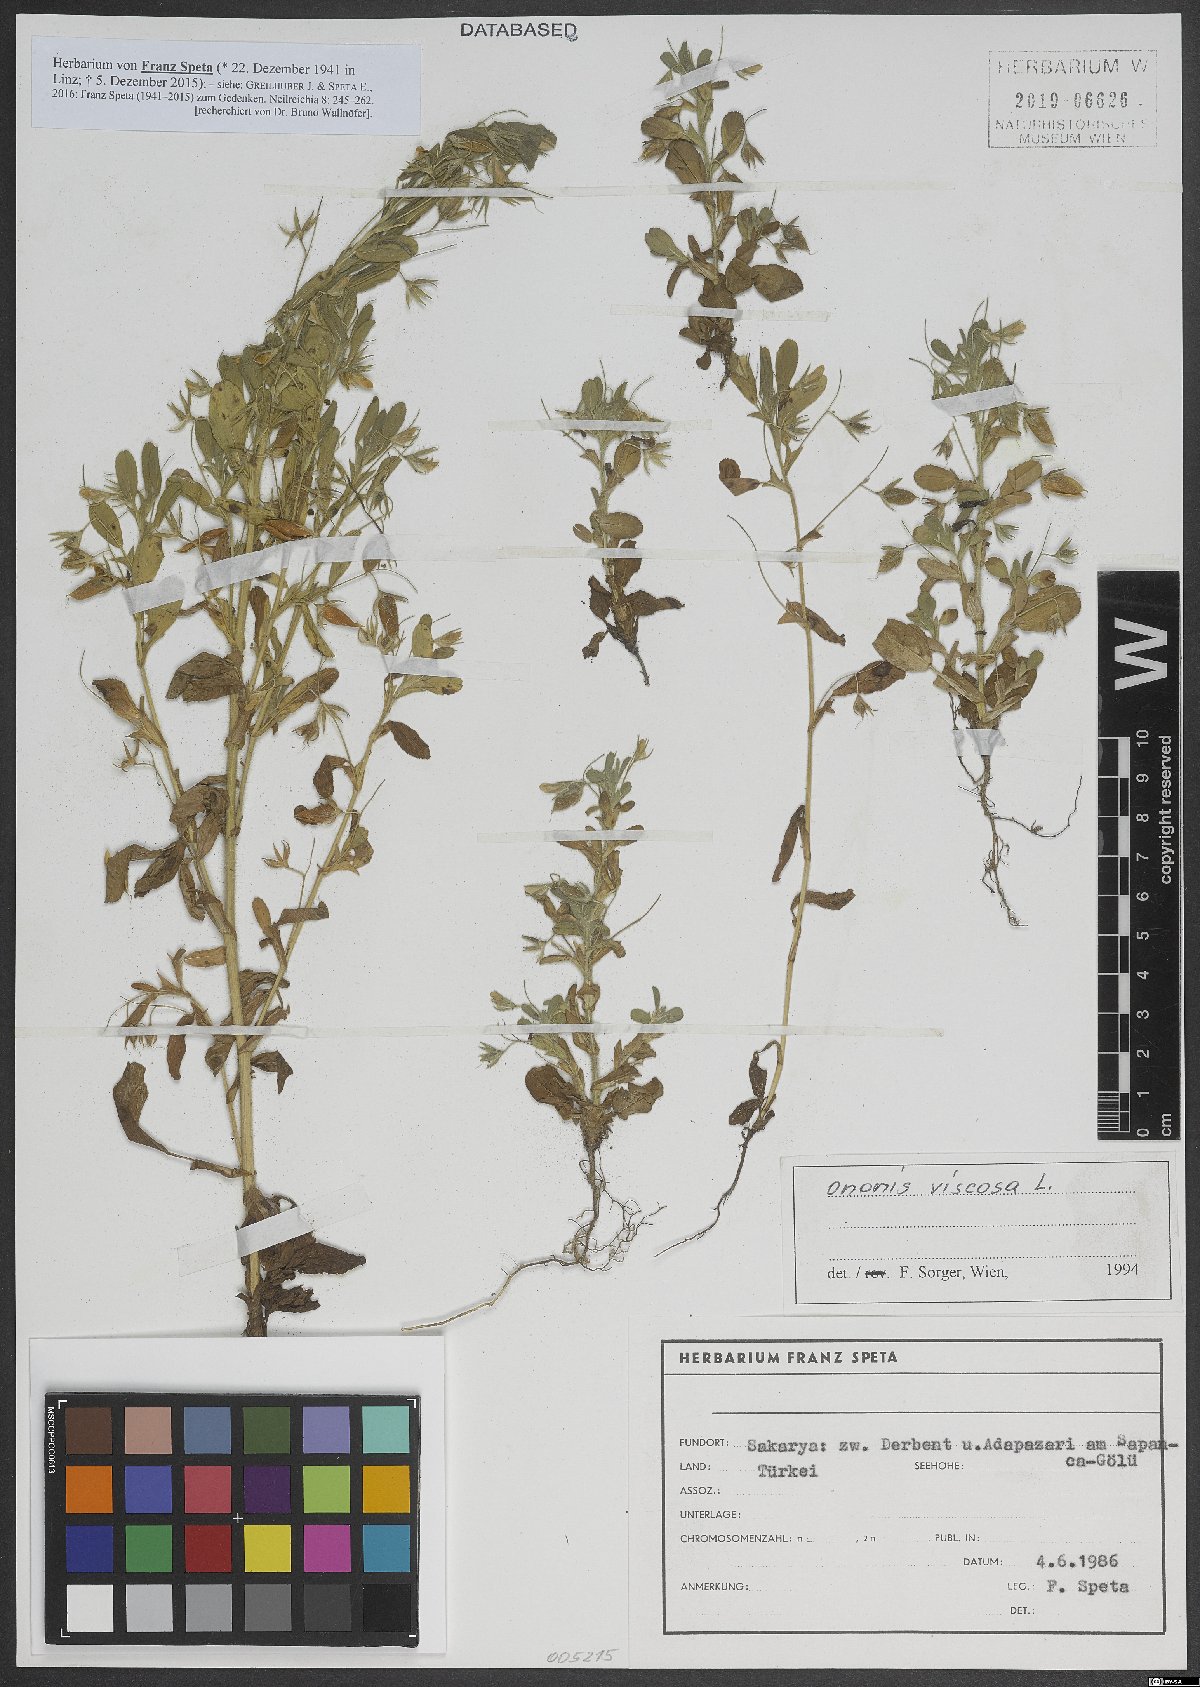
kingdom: Plantae
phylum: Tracheophyta
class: Magnoliopsida
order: Fabales
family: Fabaceae
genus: Ononis
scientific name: Ononis viscosa
